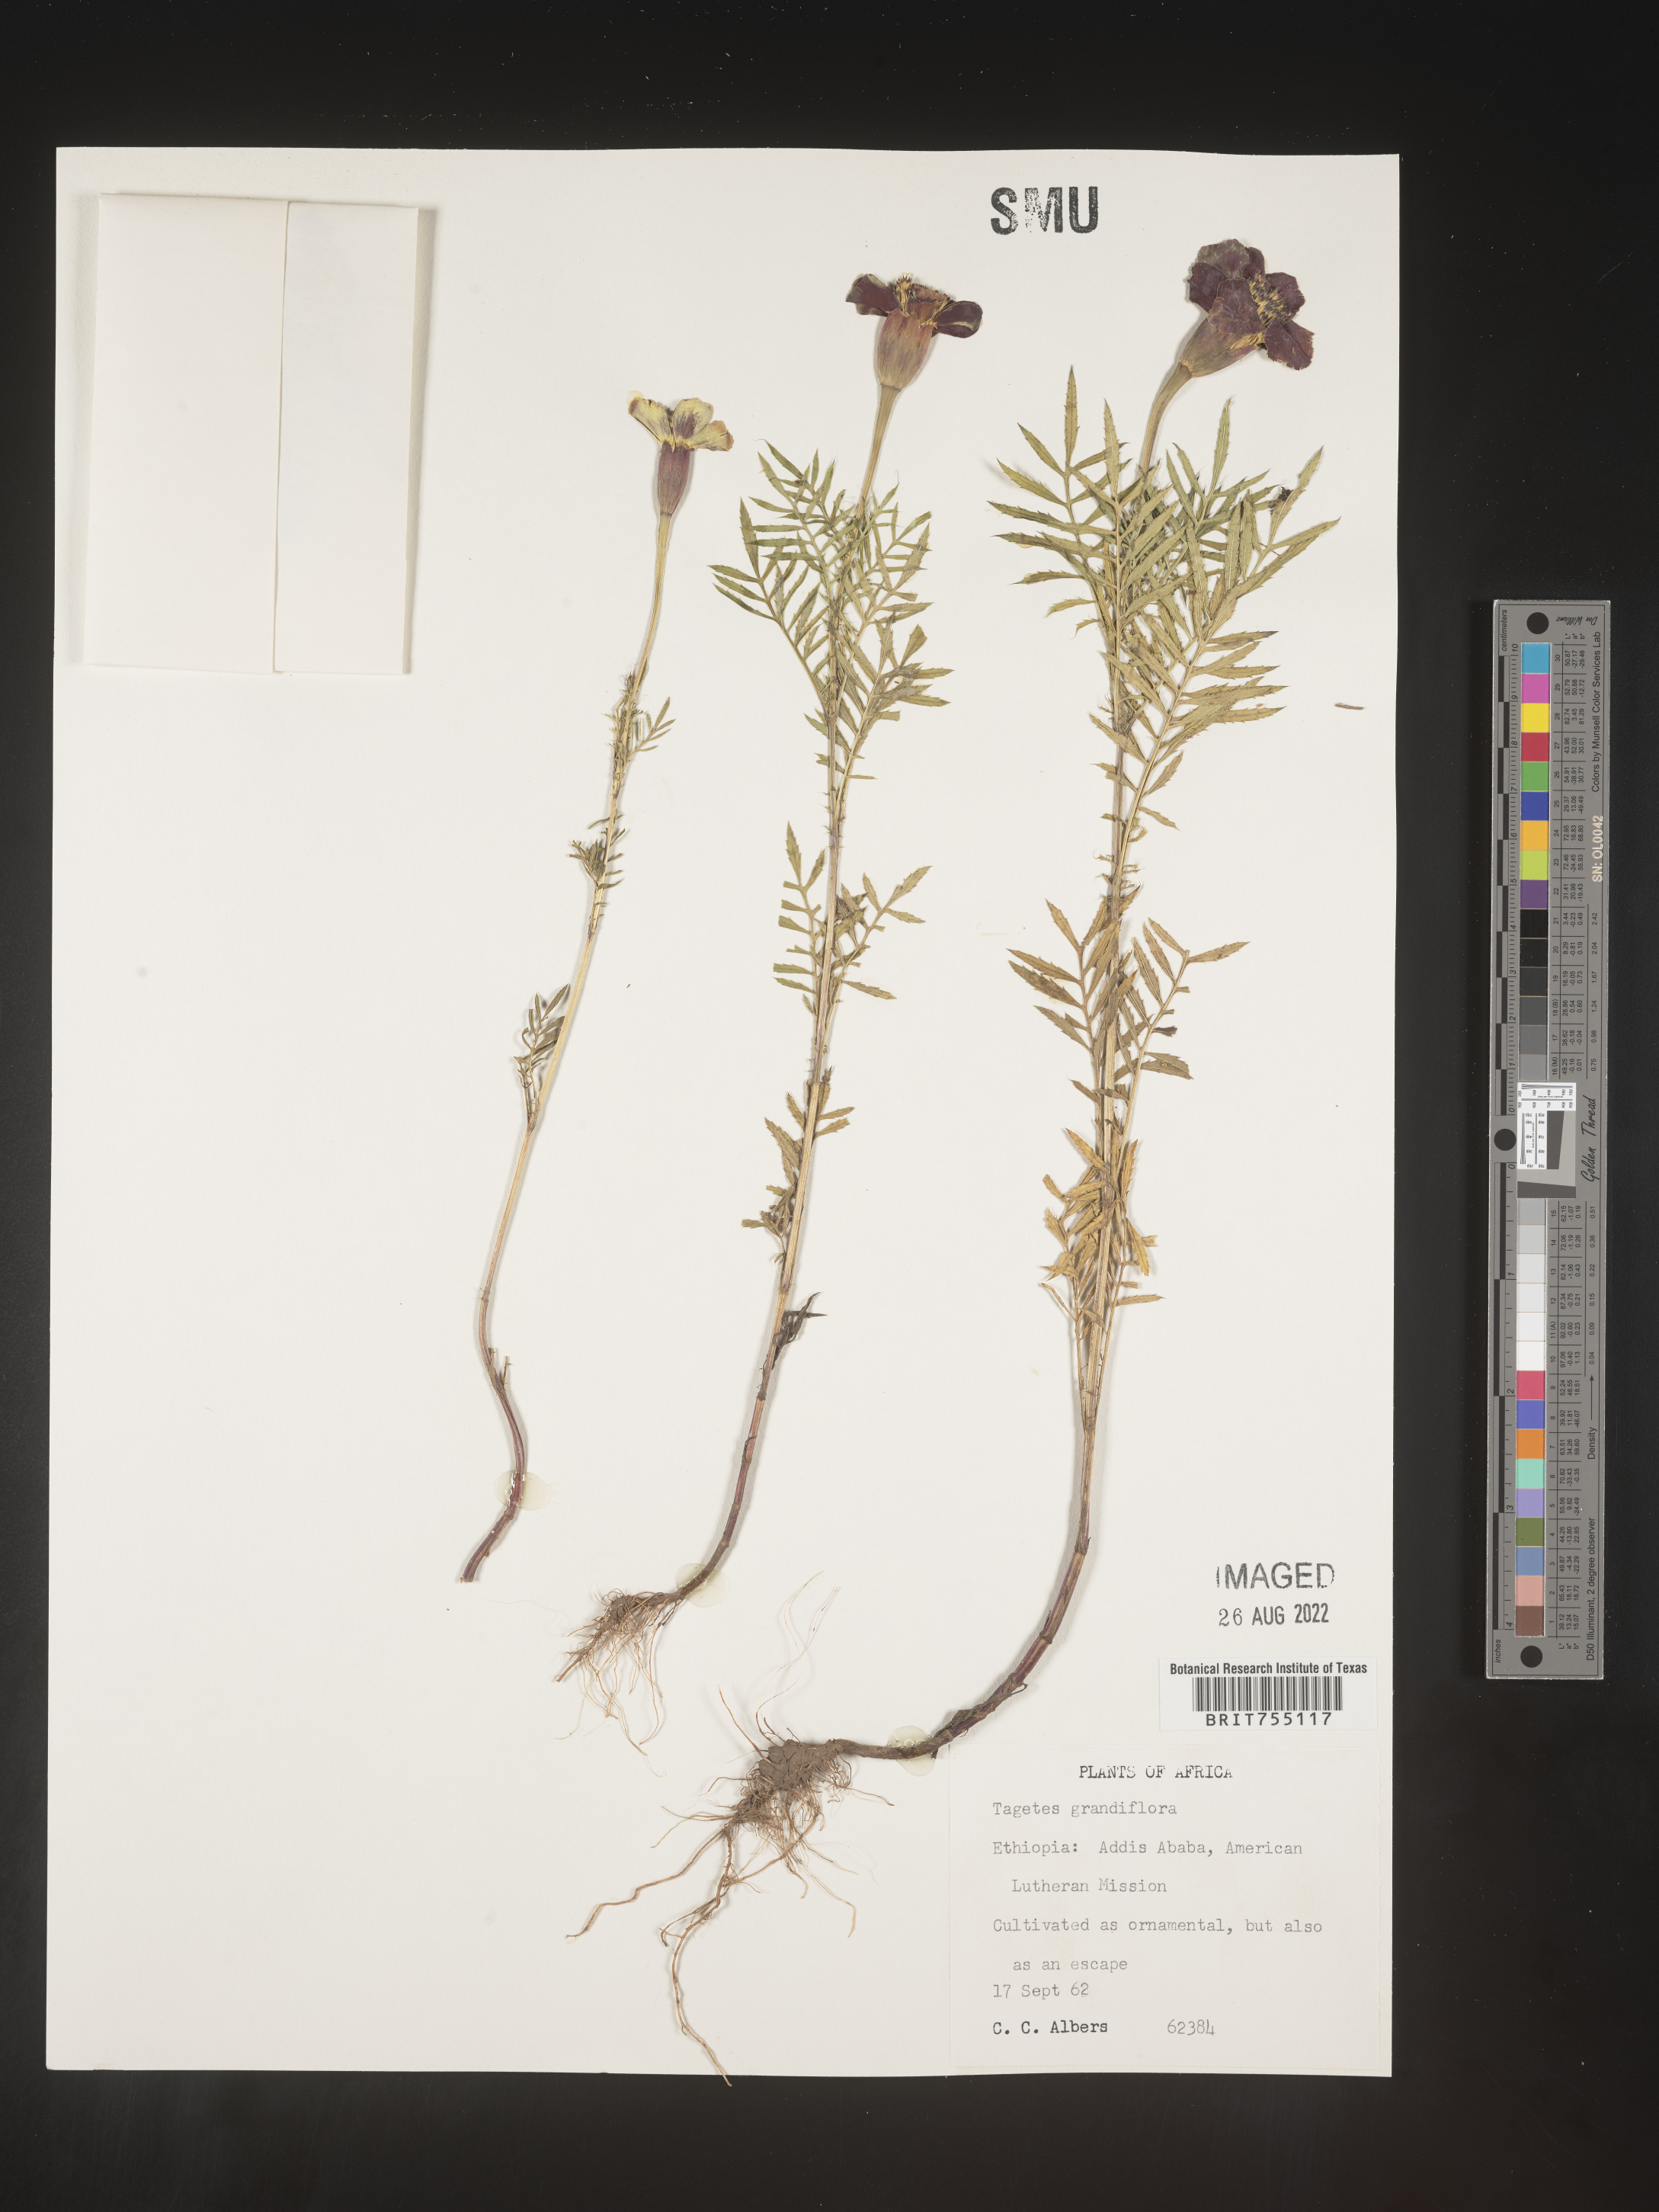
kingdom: Plantae
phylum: Tracheophyta
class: Magnoliopsida
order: Asterales
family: Asteraceae
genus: Tagetes
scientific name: Tagetes
